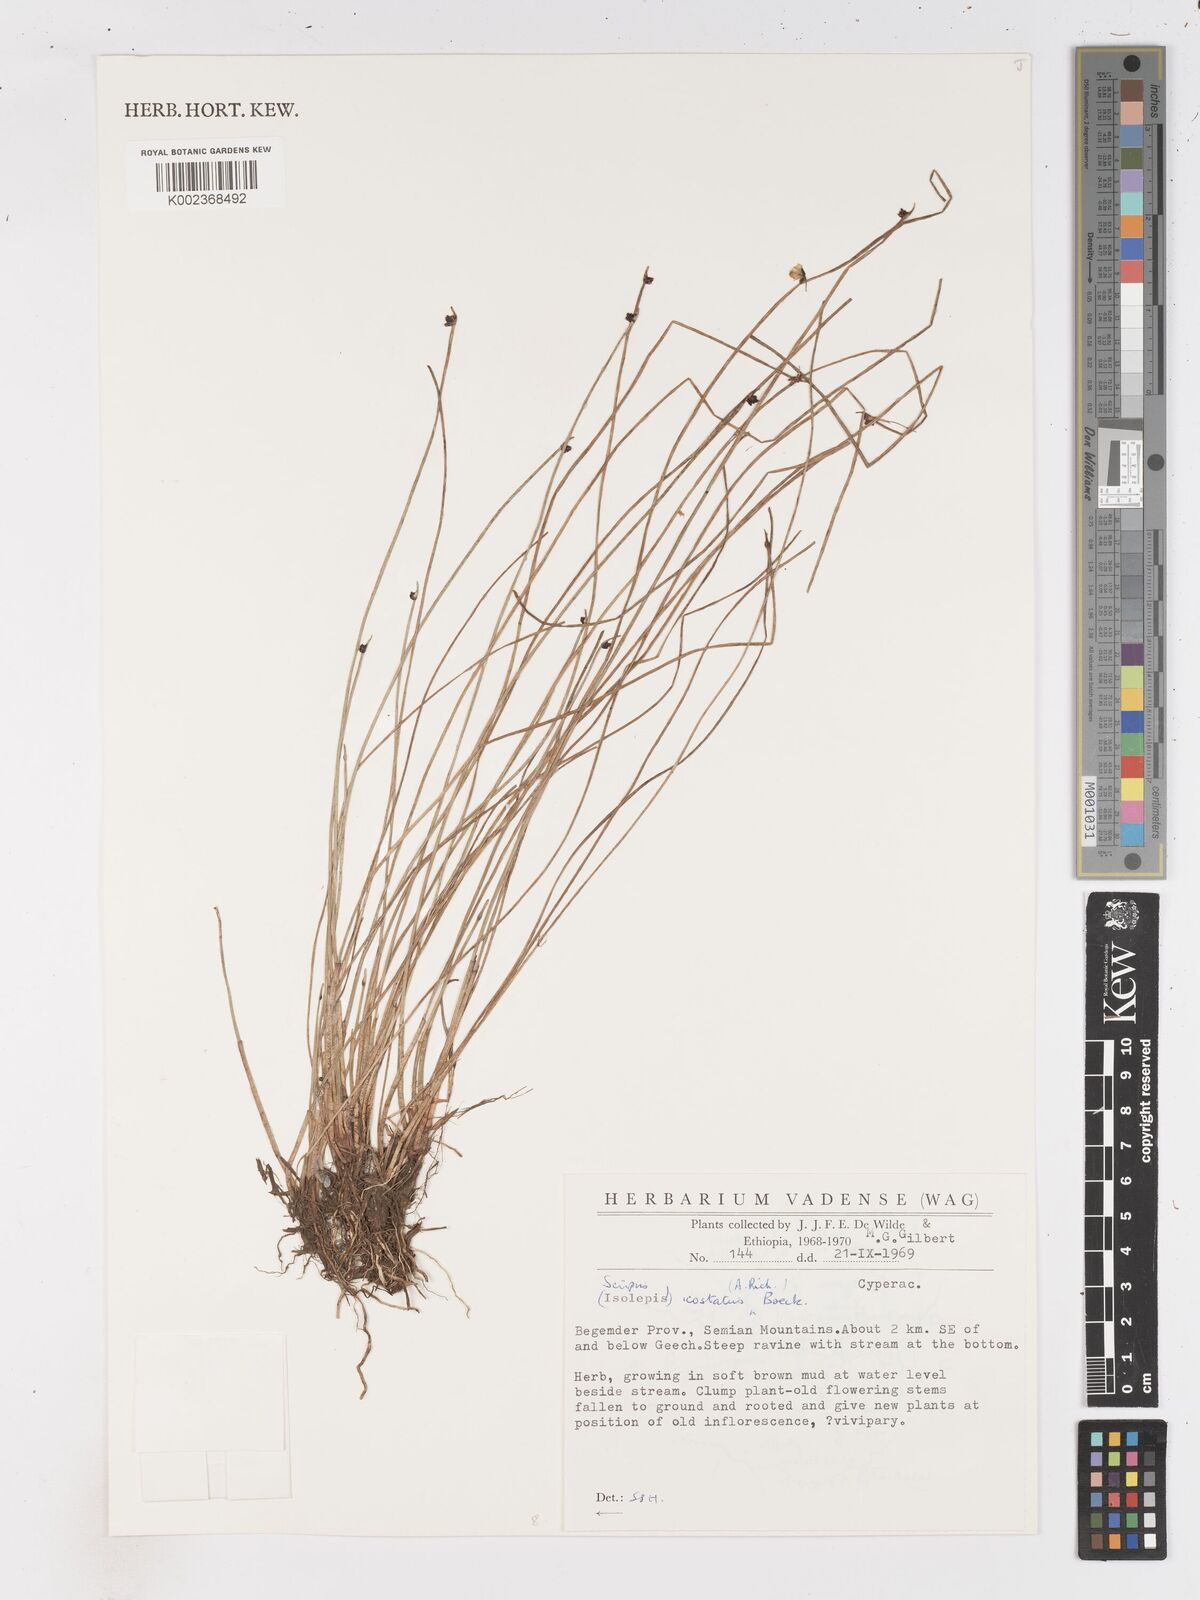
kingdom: Plantae
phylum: Tracheophyta
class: Liliopsida
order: Poales
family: Cyperaceae
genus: Isolepis
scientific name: Isolepis costata
